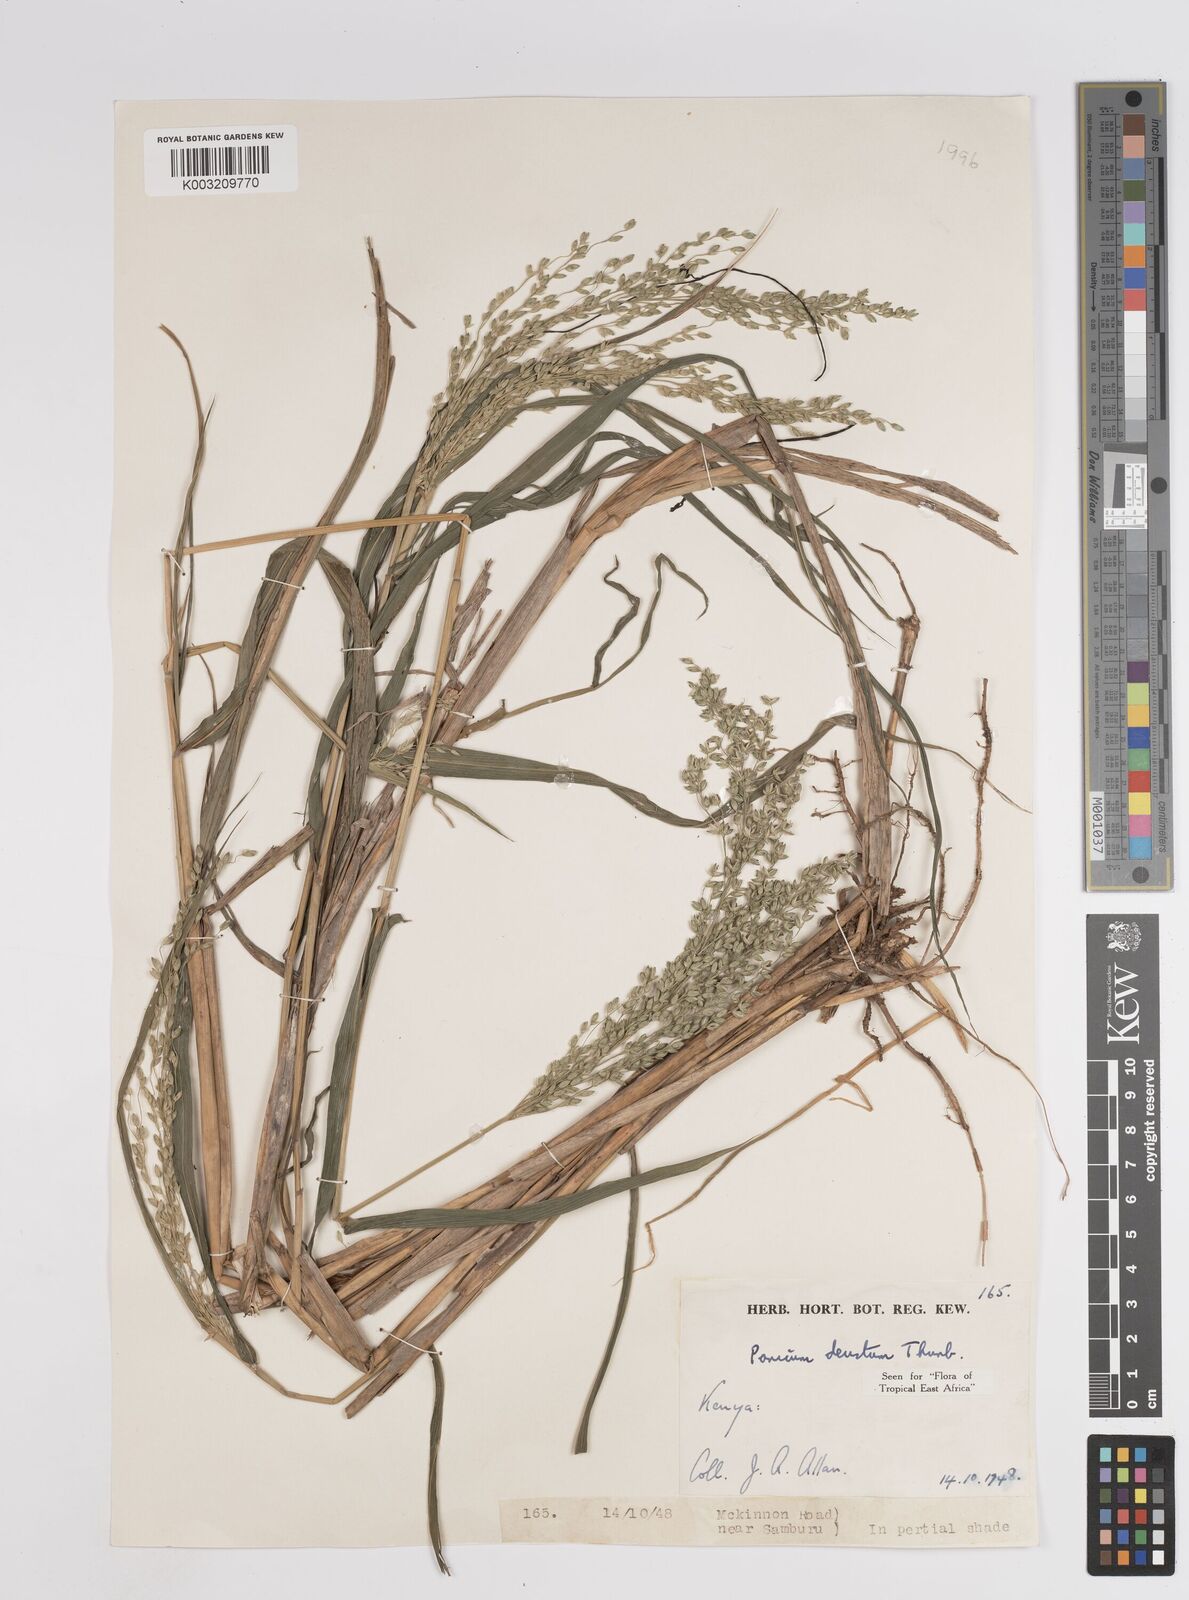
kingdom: Plantae
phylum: Tracheophyta
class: Liliopsida
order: Poales
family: Poaceae
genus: Panicum
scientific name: Panicum
